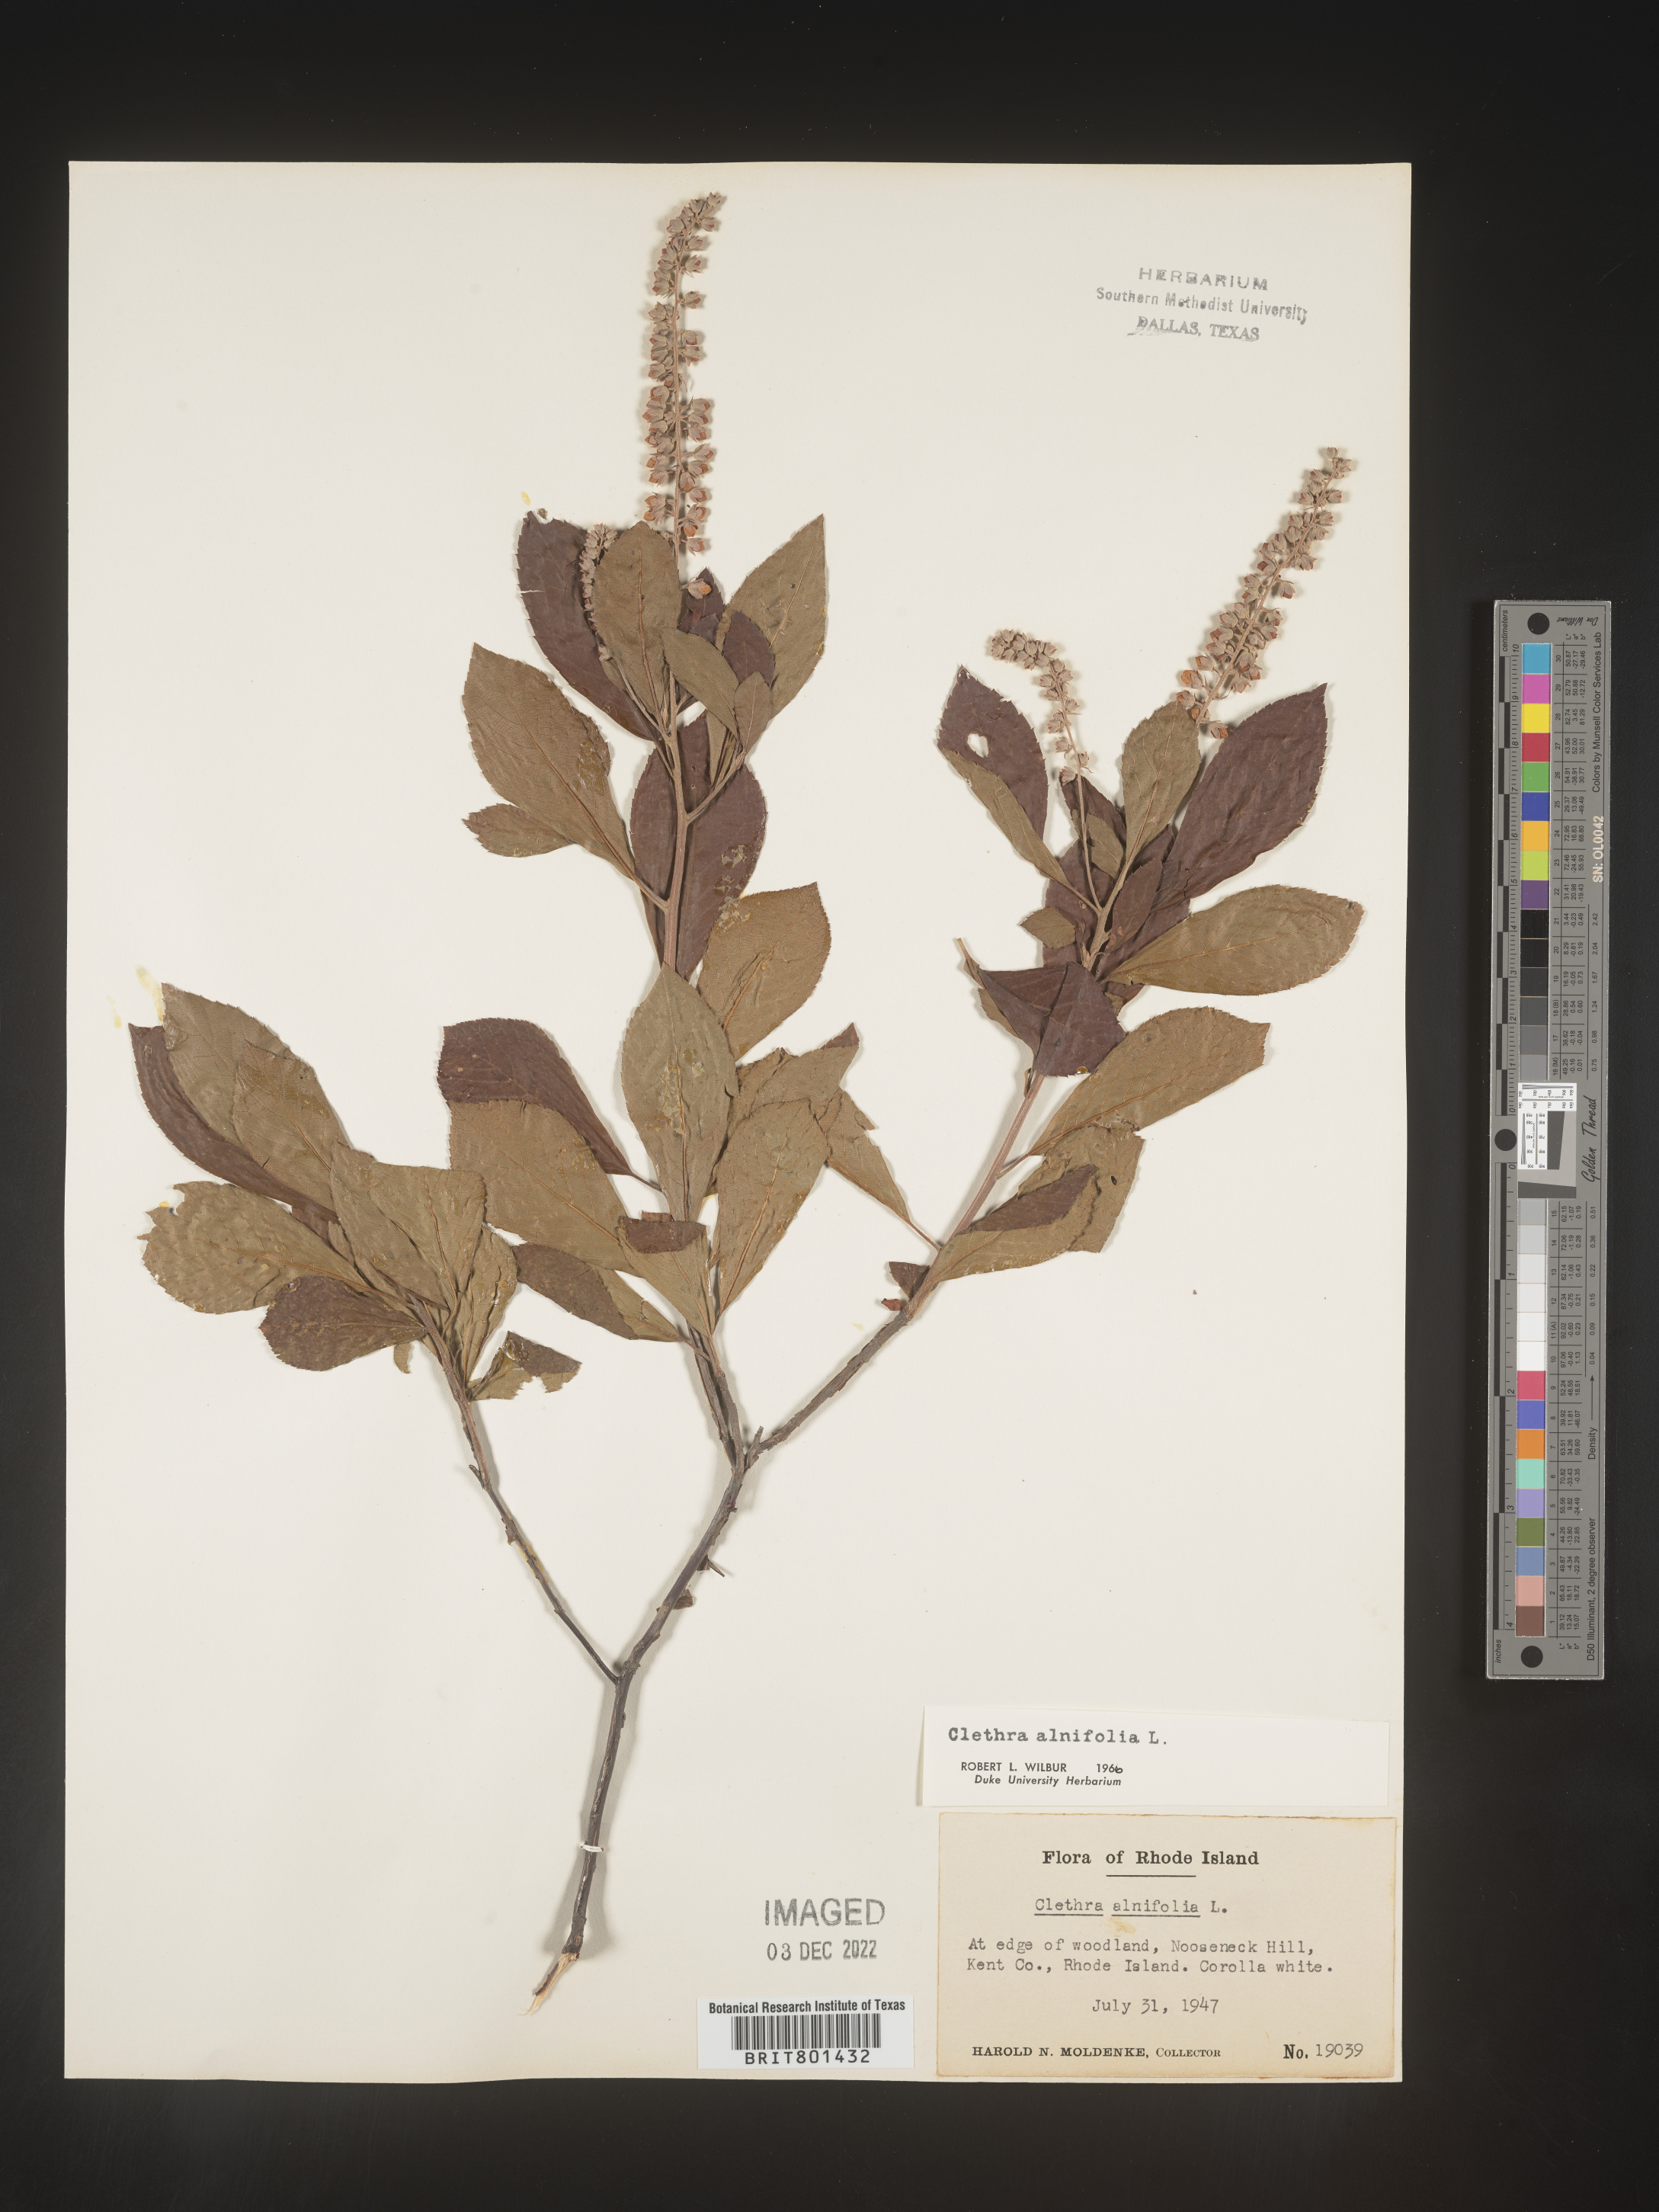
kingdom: Plantae
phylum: Tracheophyta
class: Magnoliopsida
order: Ericales
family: Clethraceae
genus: Clethra
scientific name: Clethra alnifolia
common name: Sweet pepperbush
